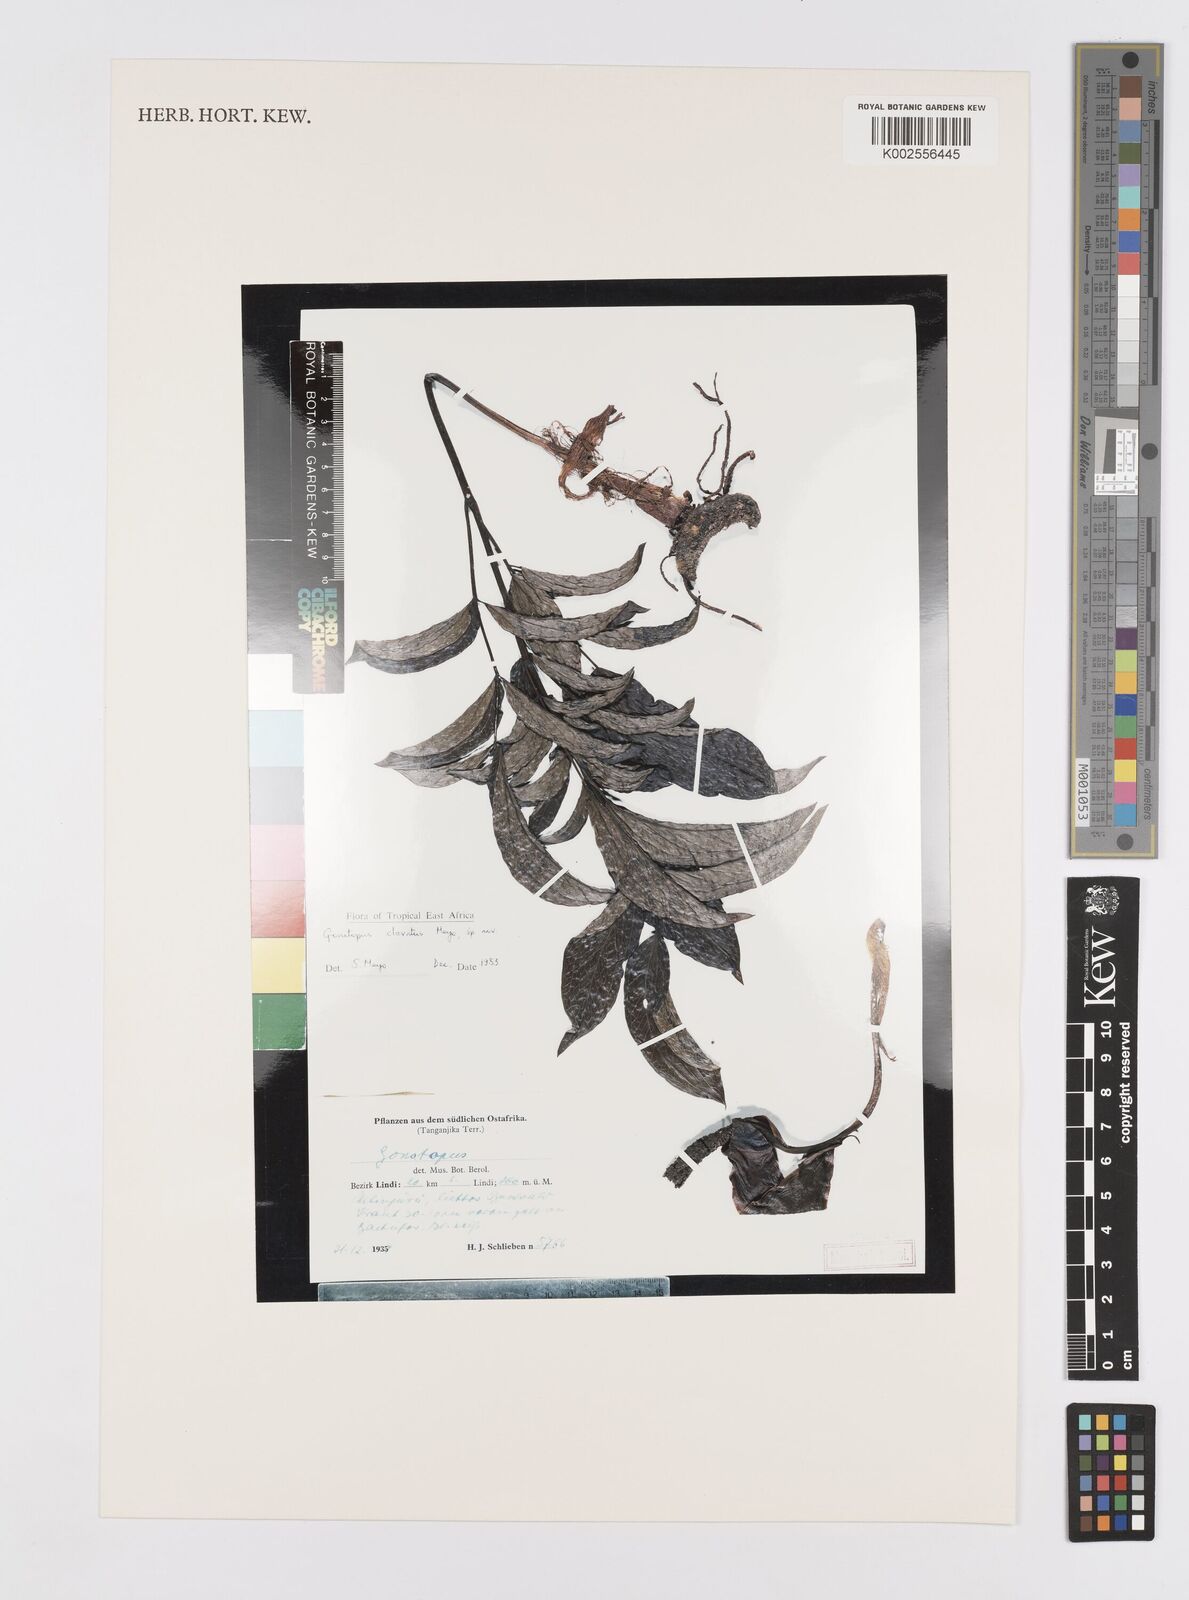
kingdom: Plantae
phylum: Tracheophyta
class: Liliopsida
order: Alismatales
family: Araceae
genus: Gonatopus
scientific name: Gonatopus clavatus
